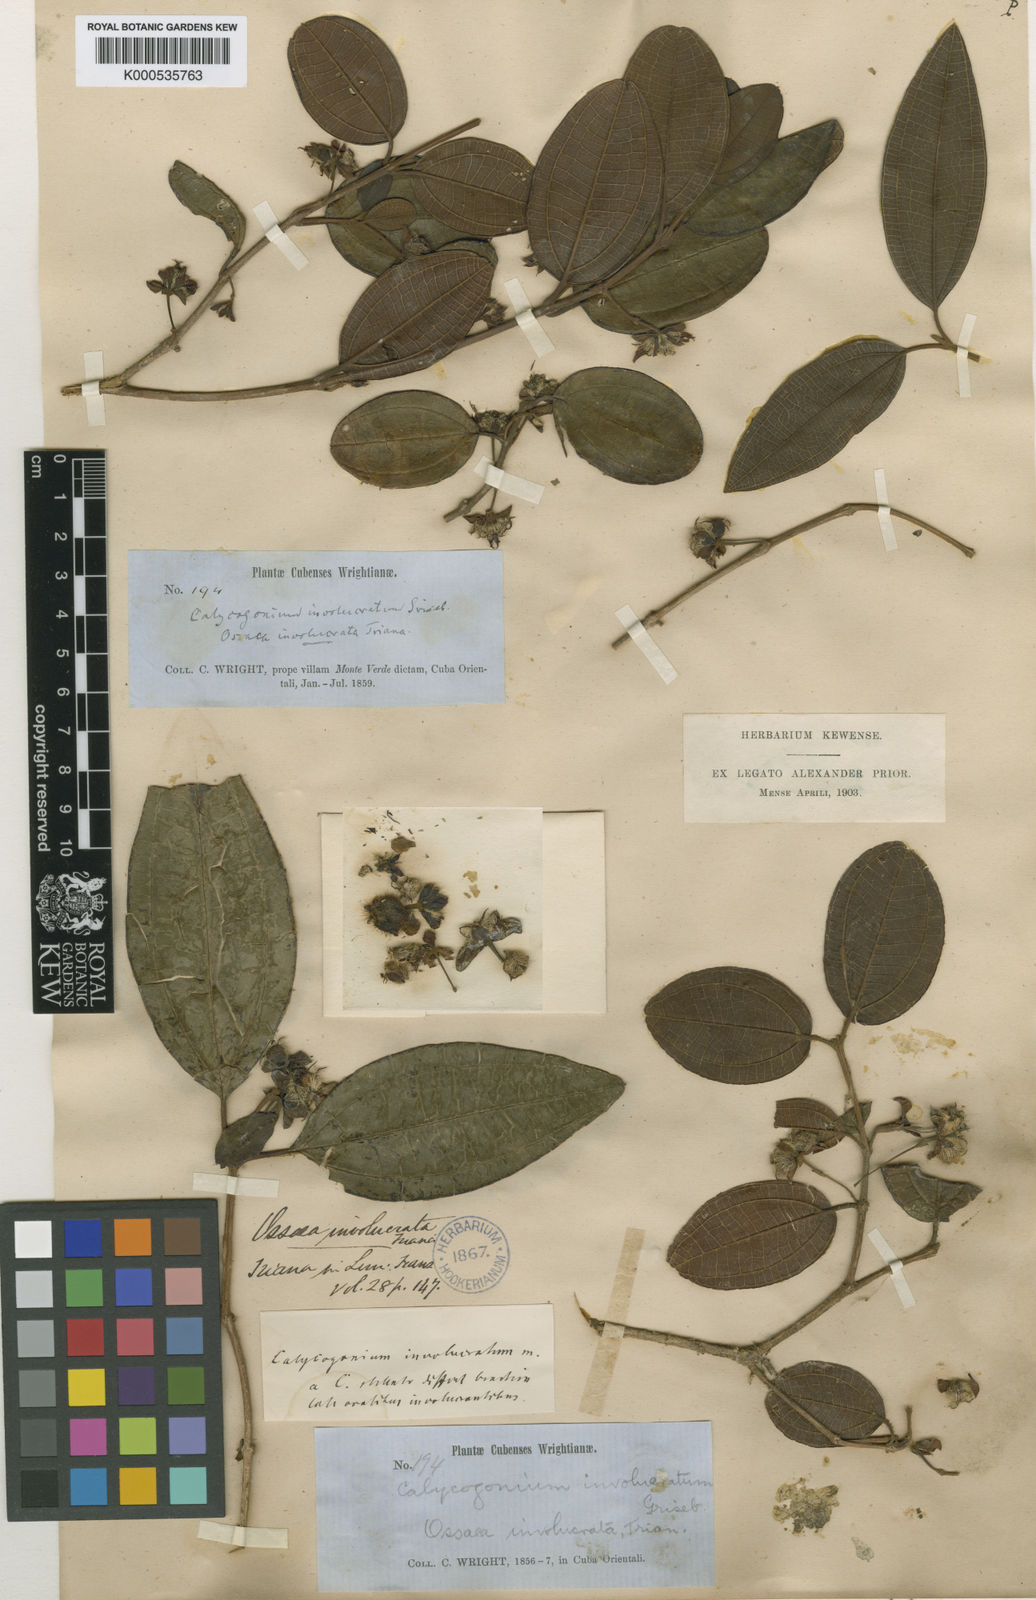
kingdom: Plantae
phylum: Tracheophyta
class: Magnoliopsida
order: Myrtales
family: Melastomataceae
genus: Miconia
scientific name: Miconia grandibracteata
